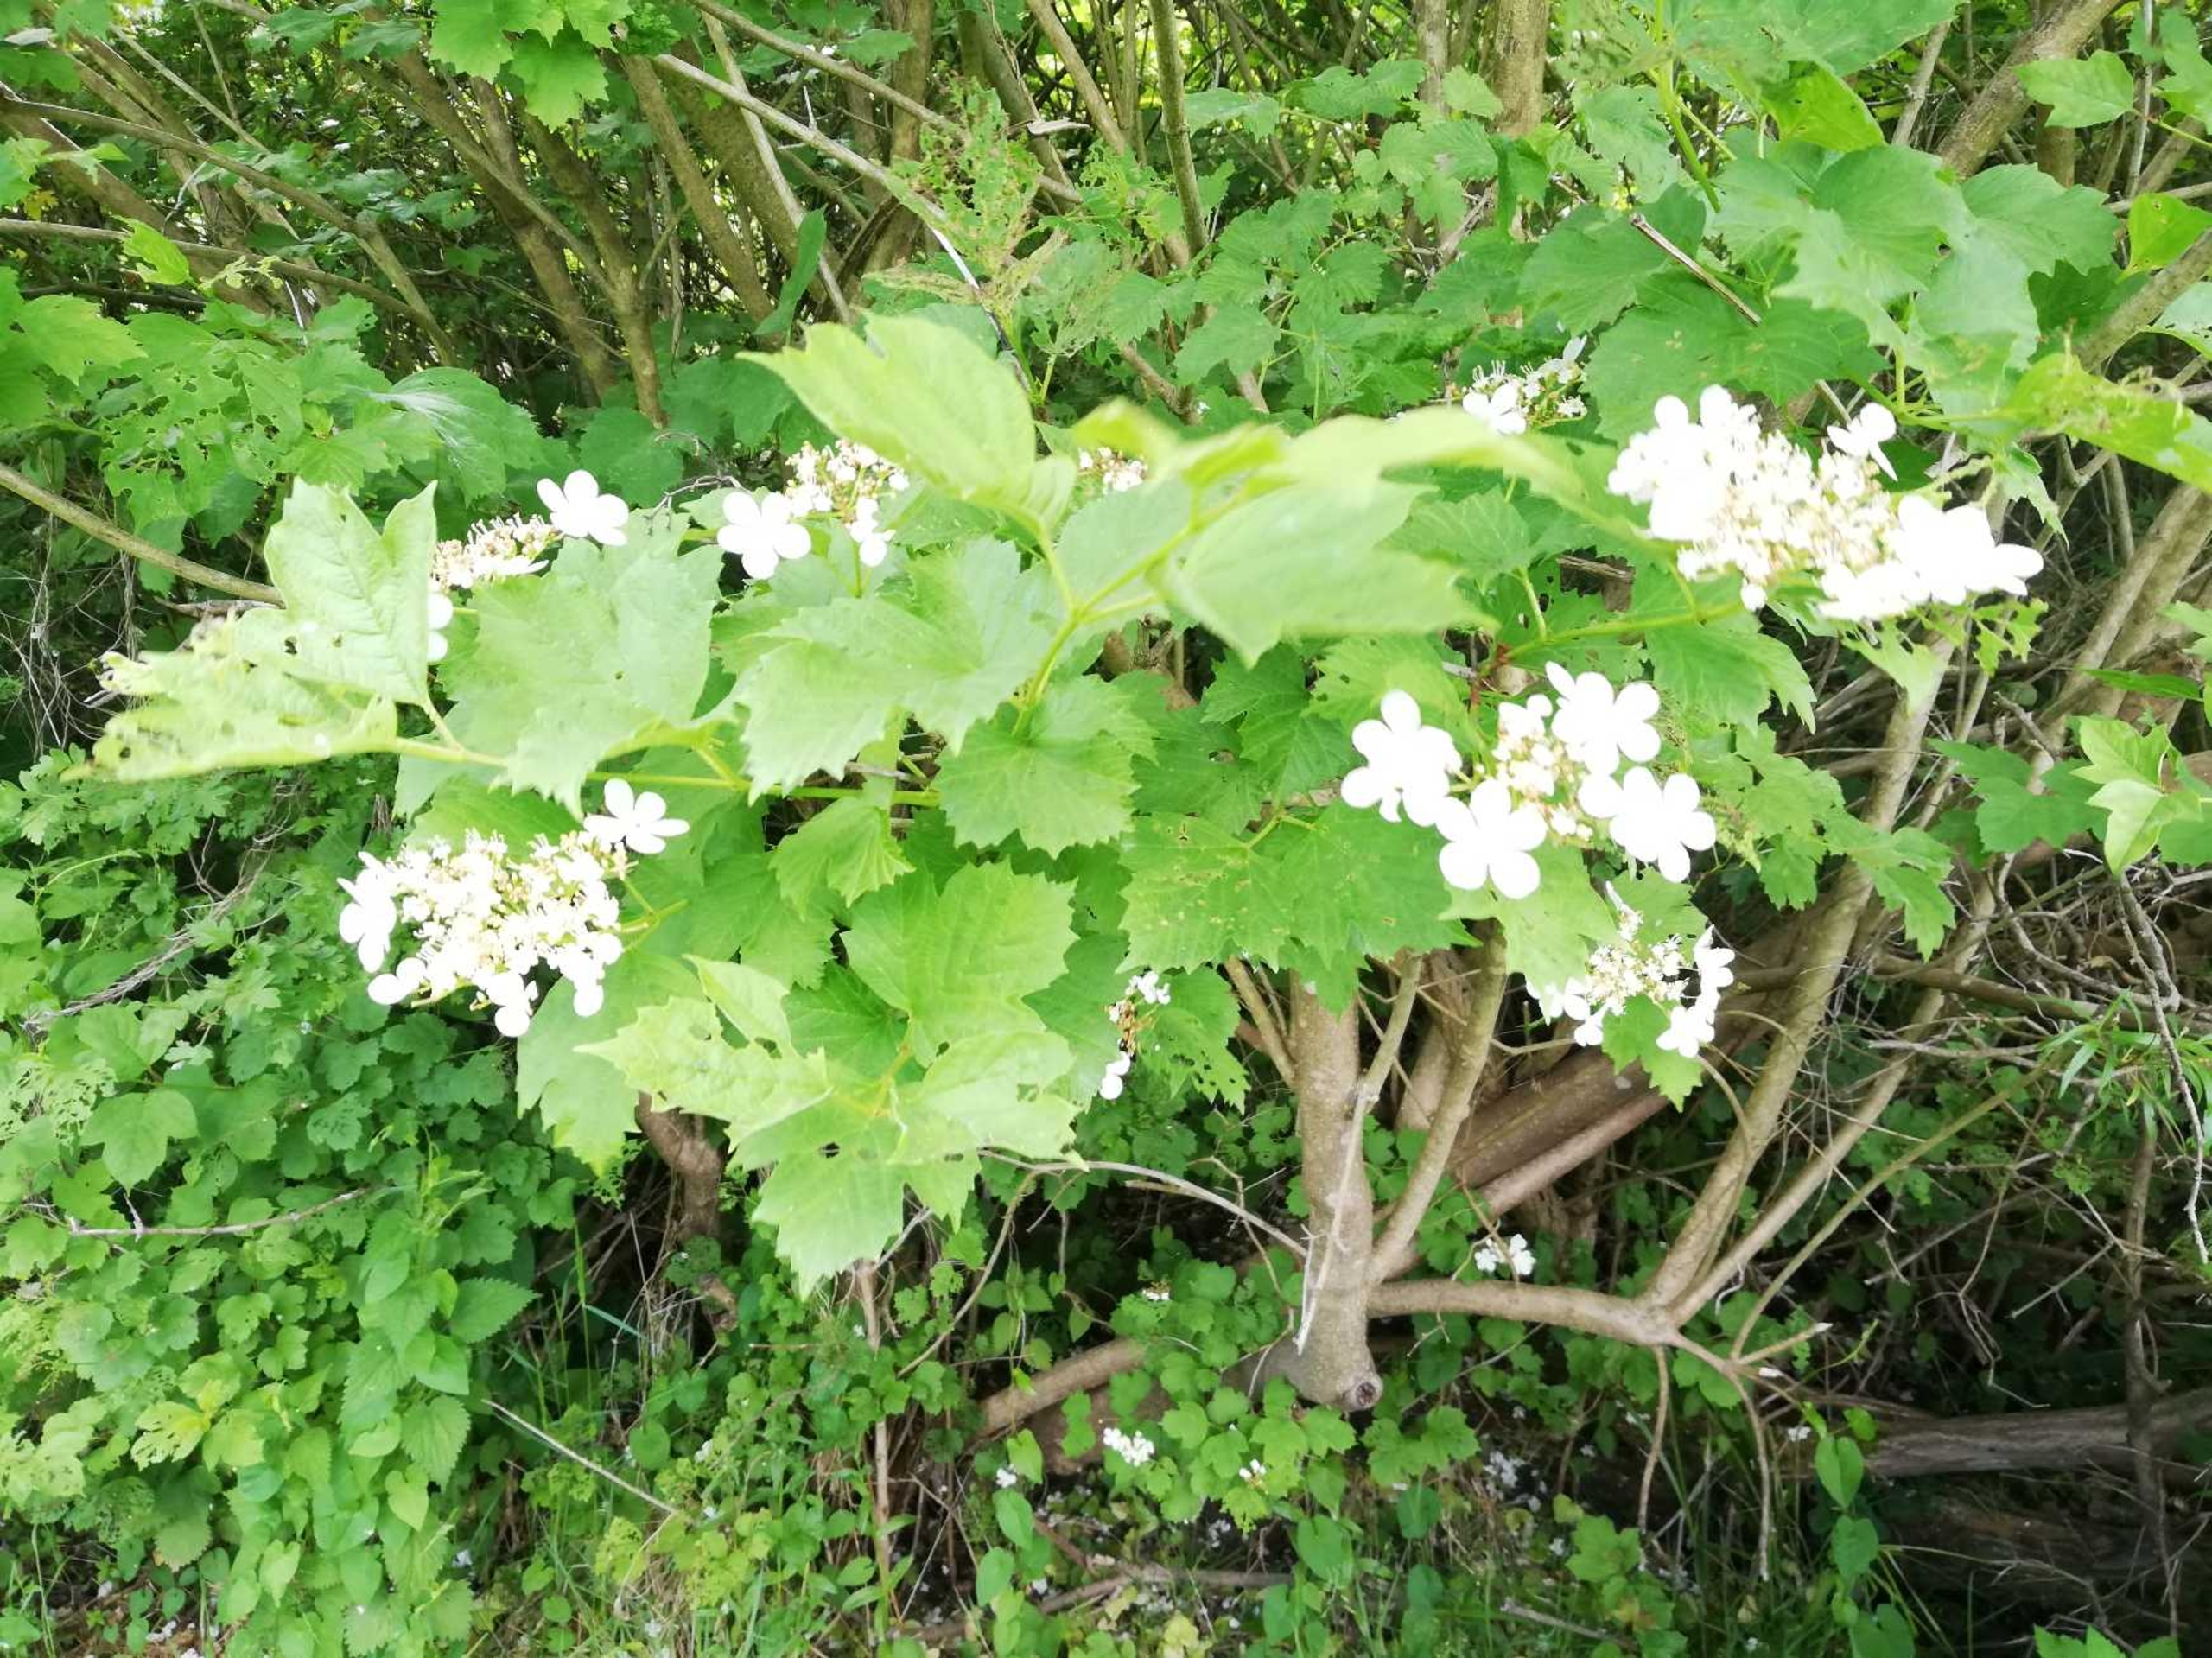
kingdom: Plantae
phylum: Tracheophyta
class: Magnoliopsida
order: Dipsacales
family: Viburnaceae
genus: Viburnum
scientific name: Viburnum opulus
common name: Kvalkved
